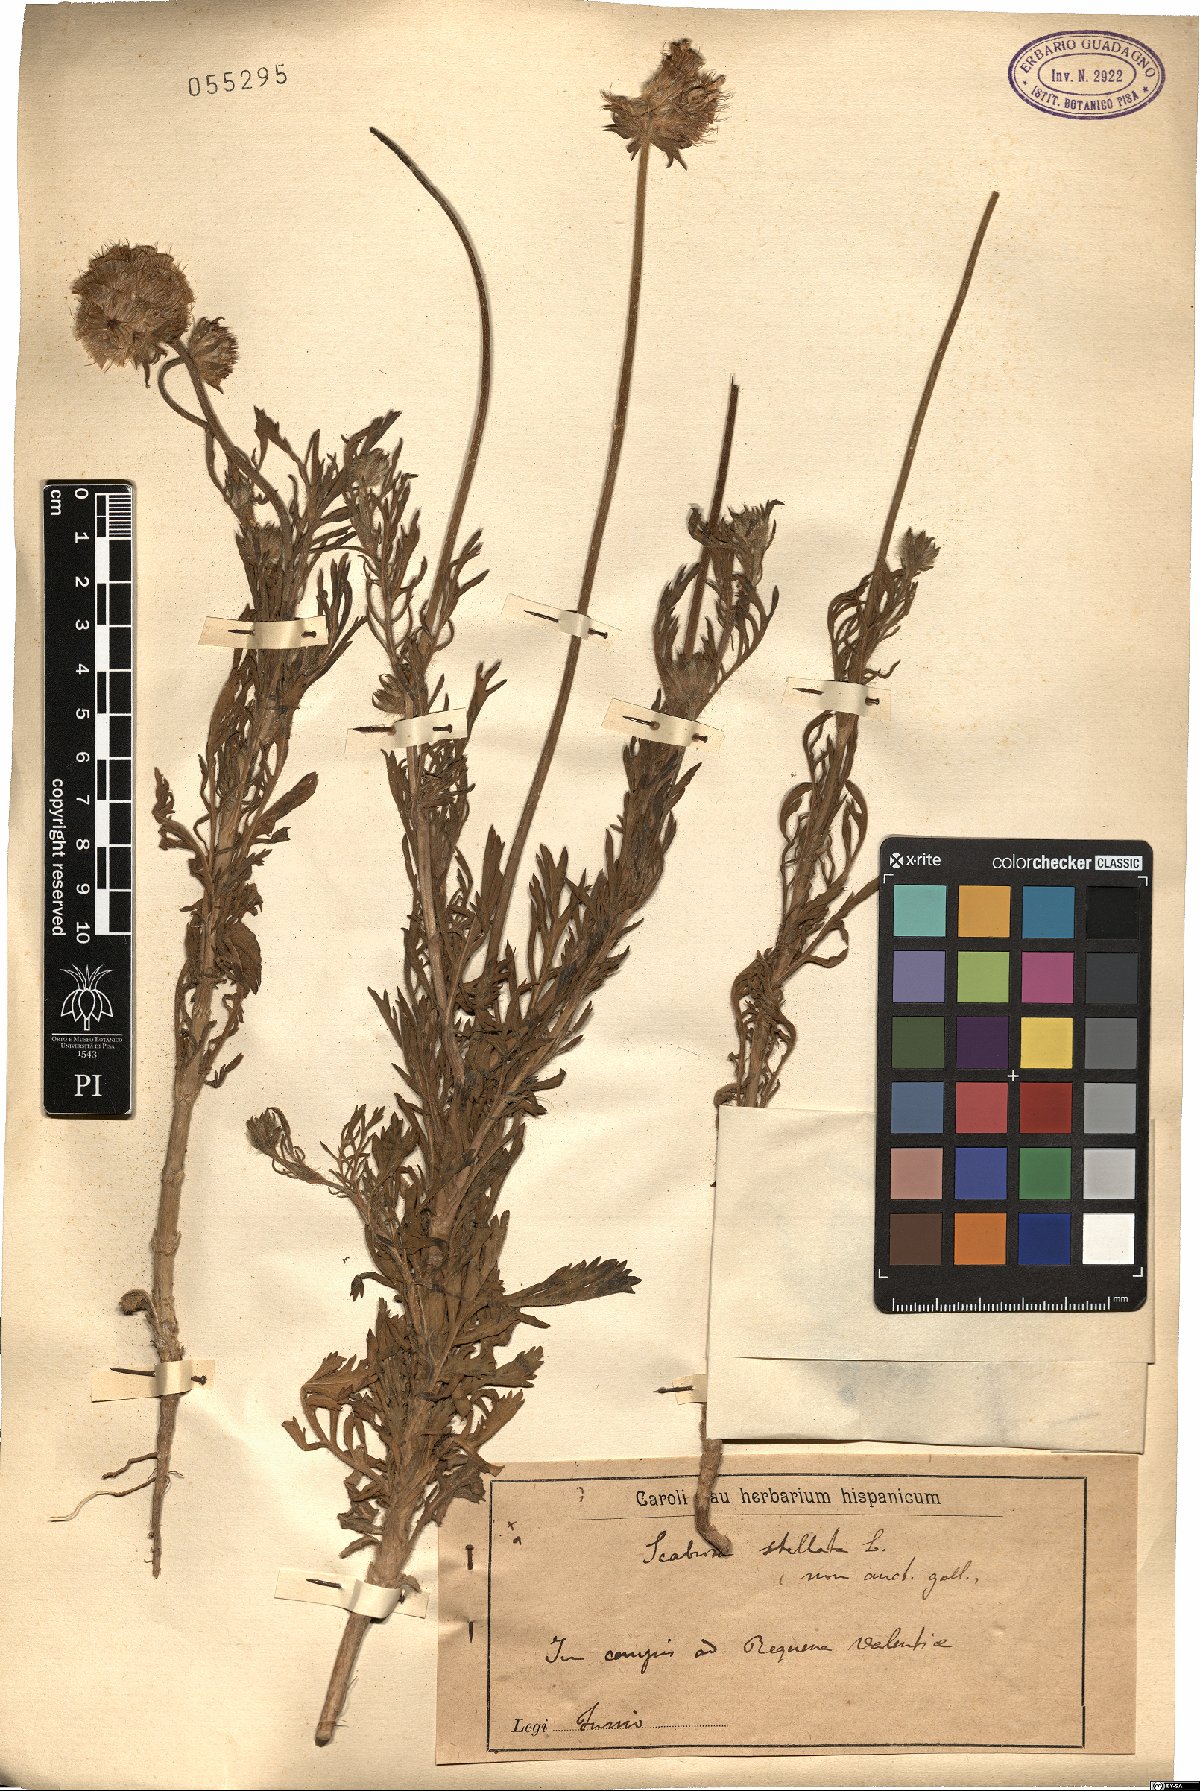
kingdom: Plantae
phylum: Tracheophyta
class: Magnoliopsida
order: Dipsacales
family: Caprifoliaceae
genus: Lomelosia
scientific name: Lomelosia stellata
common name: Teasel
